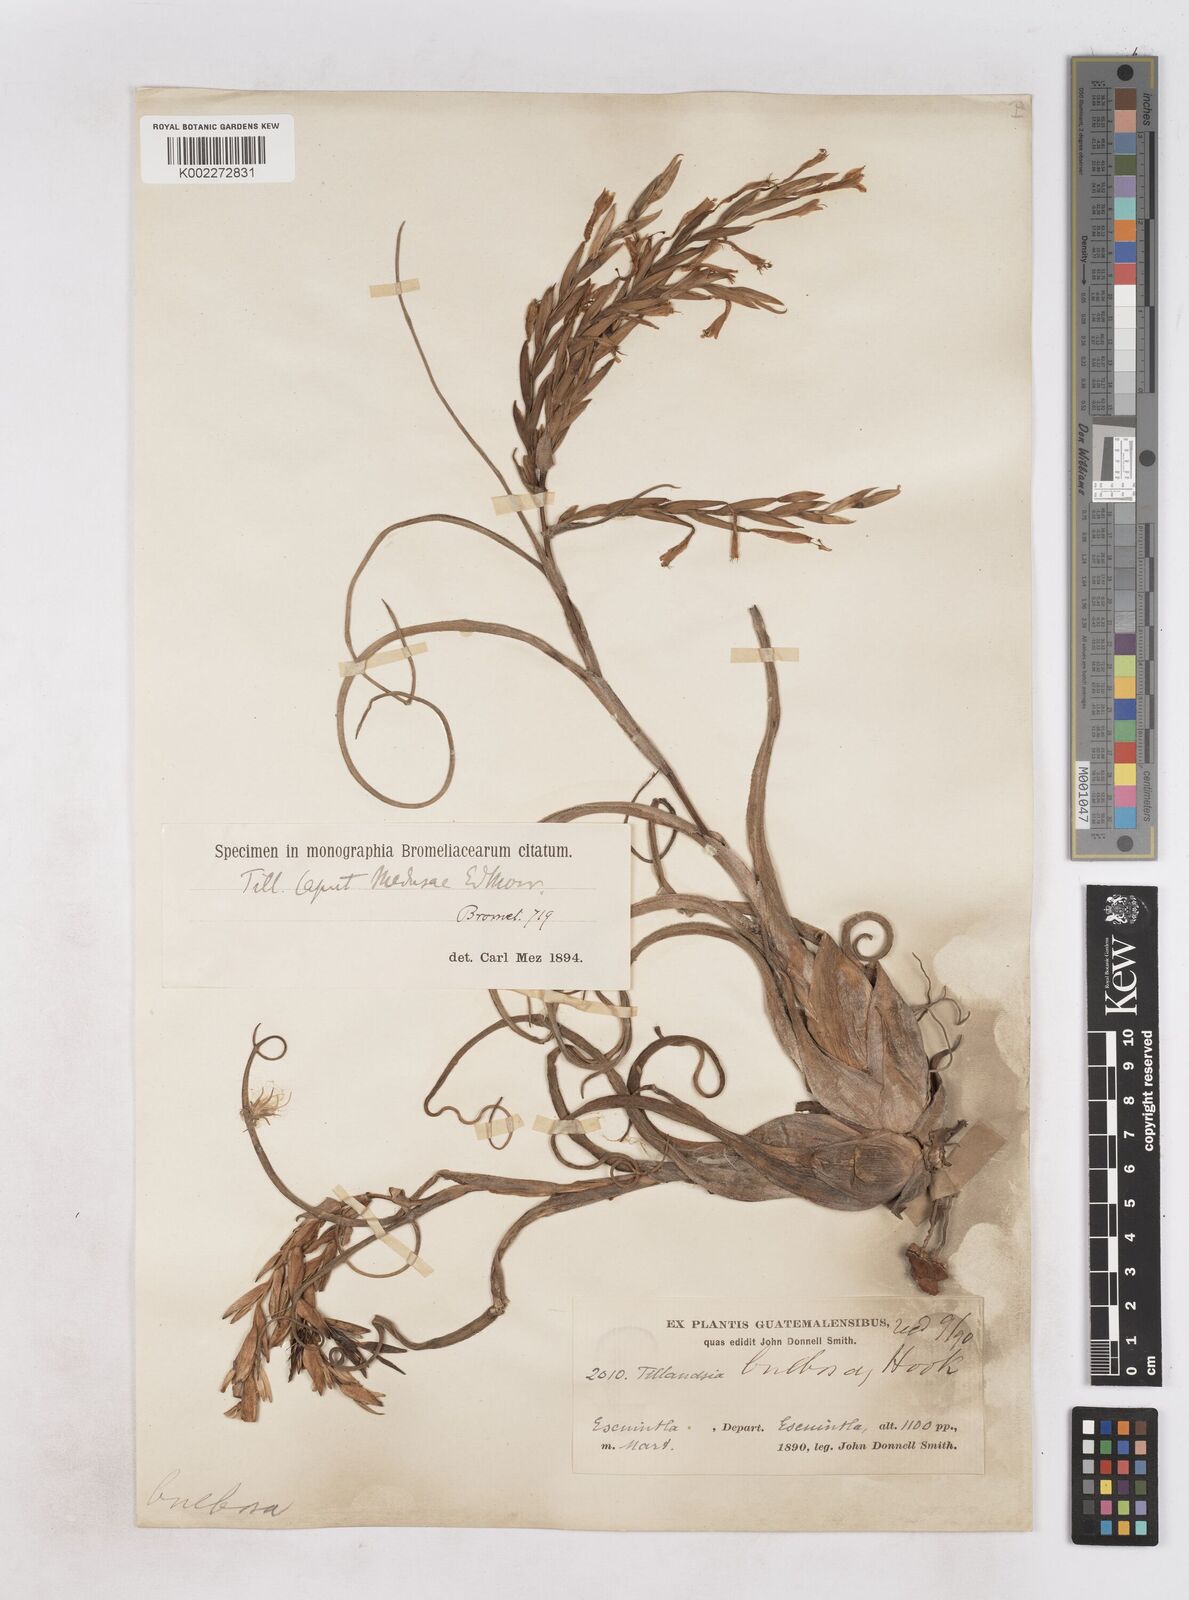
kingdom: Plantae
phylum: Tracheophyta
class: Liliopsida
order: Poales
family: Bromeliaceae
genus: Tillandsia
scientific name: Tillandsia caput-medusae
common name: Octopus plant
